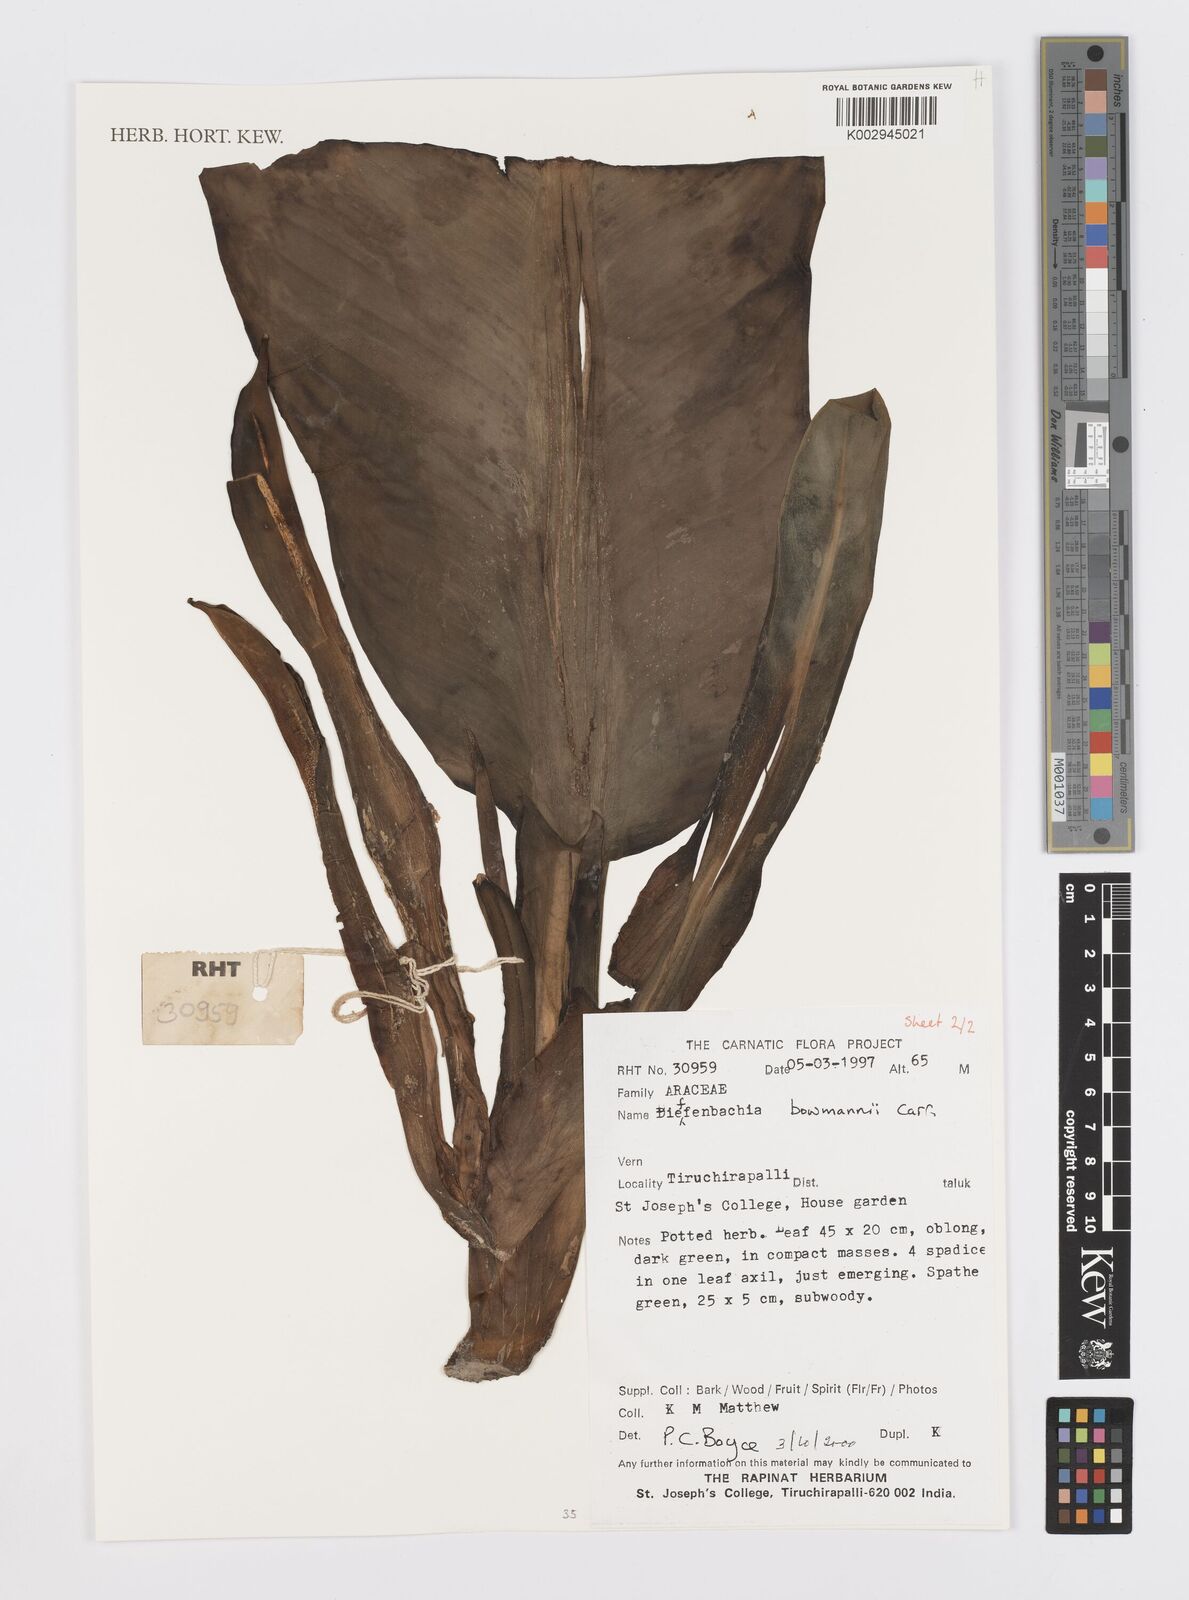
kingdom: Plantae
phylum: Tracheophyta
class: Liliopsida
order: Alismatales
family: Araceae
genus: Dieffenbachia
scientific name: Dieffenbachia bowmanni
